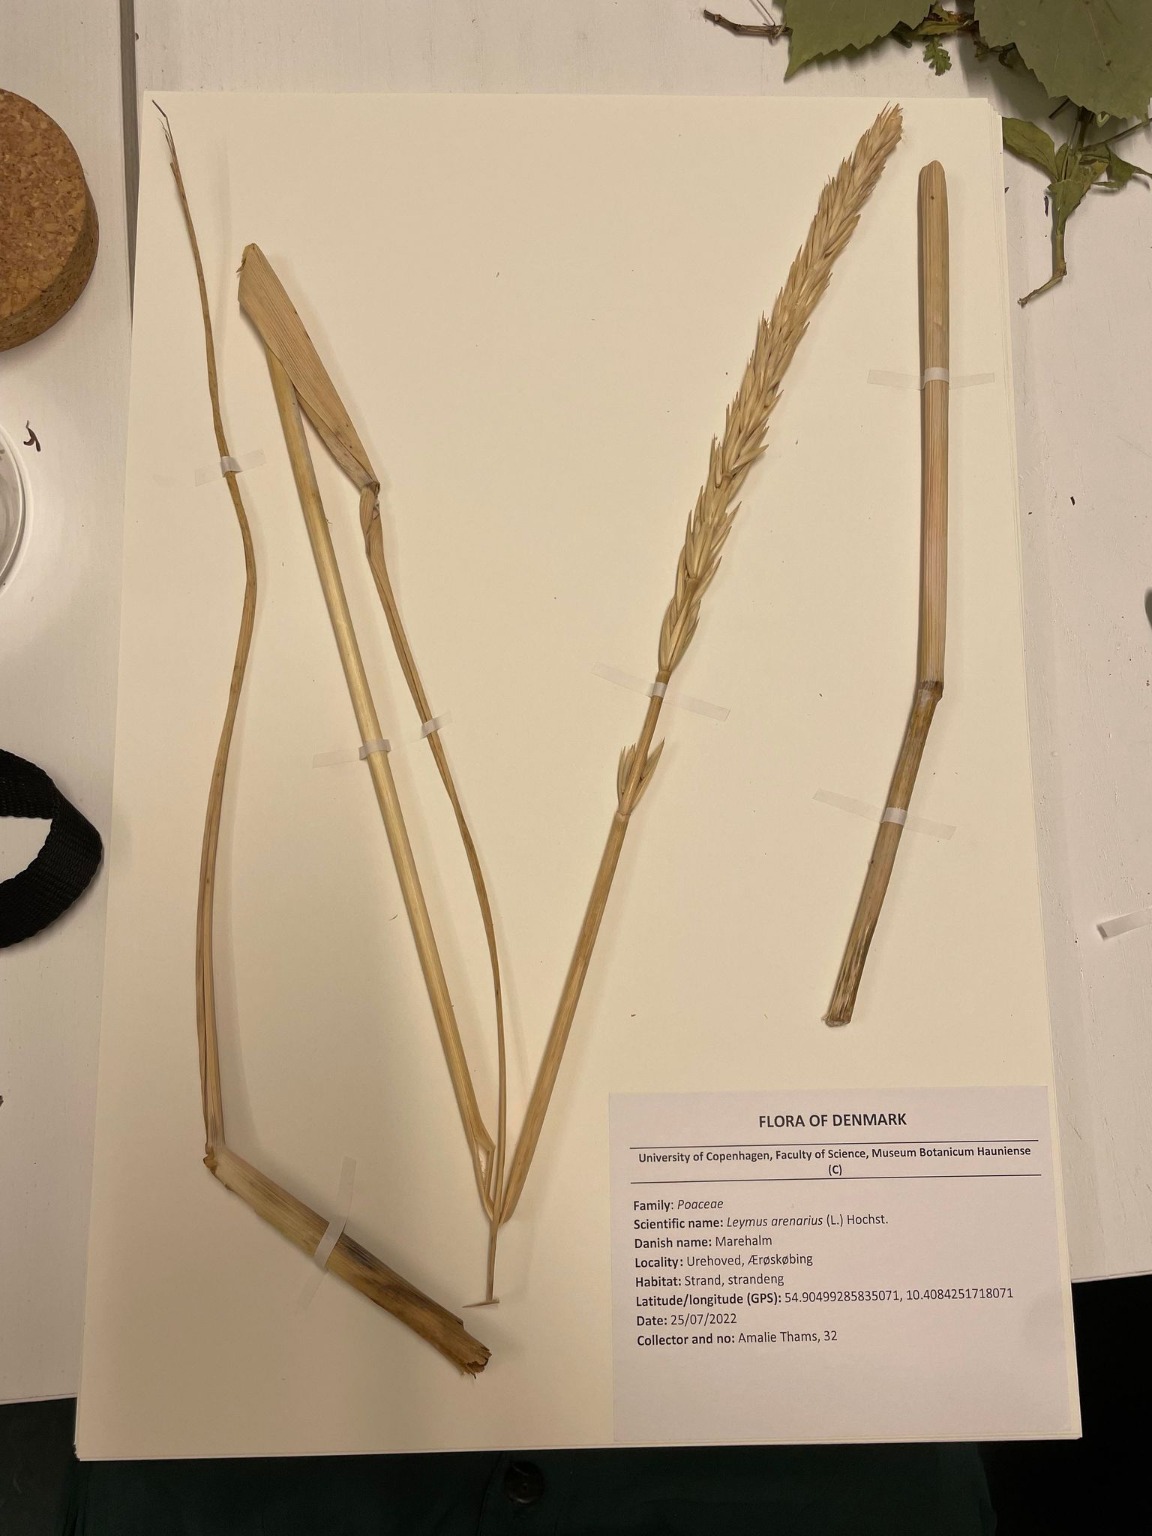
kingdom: Plantae
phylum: Tracheophyta
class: Liliopsida
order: Poales
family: Poaceae
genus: Leymus
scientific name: Leymus arenarius
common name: Marehalm
